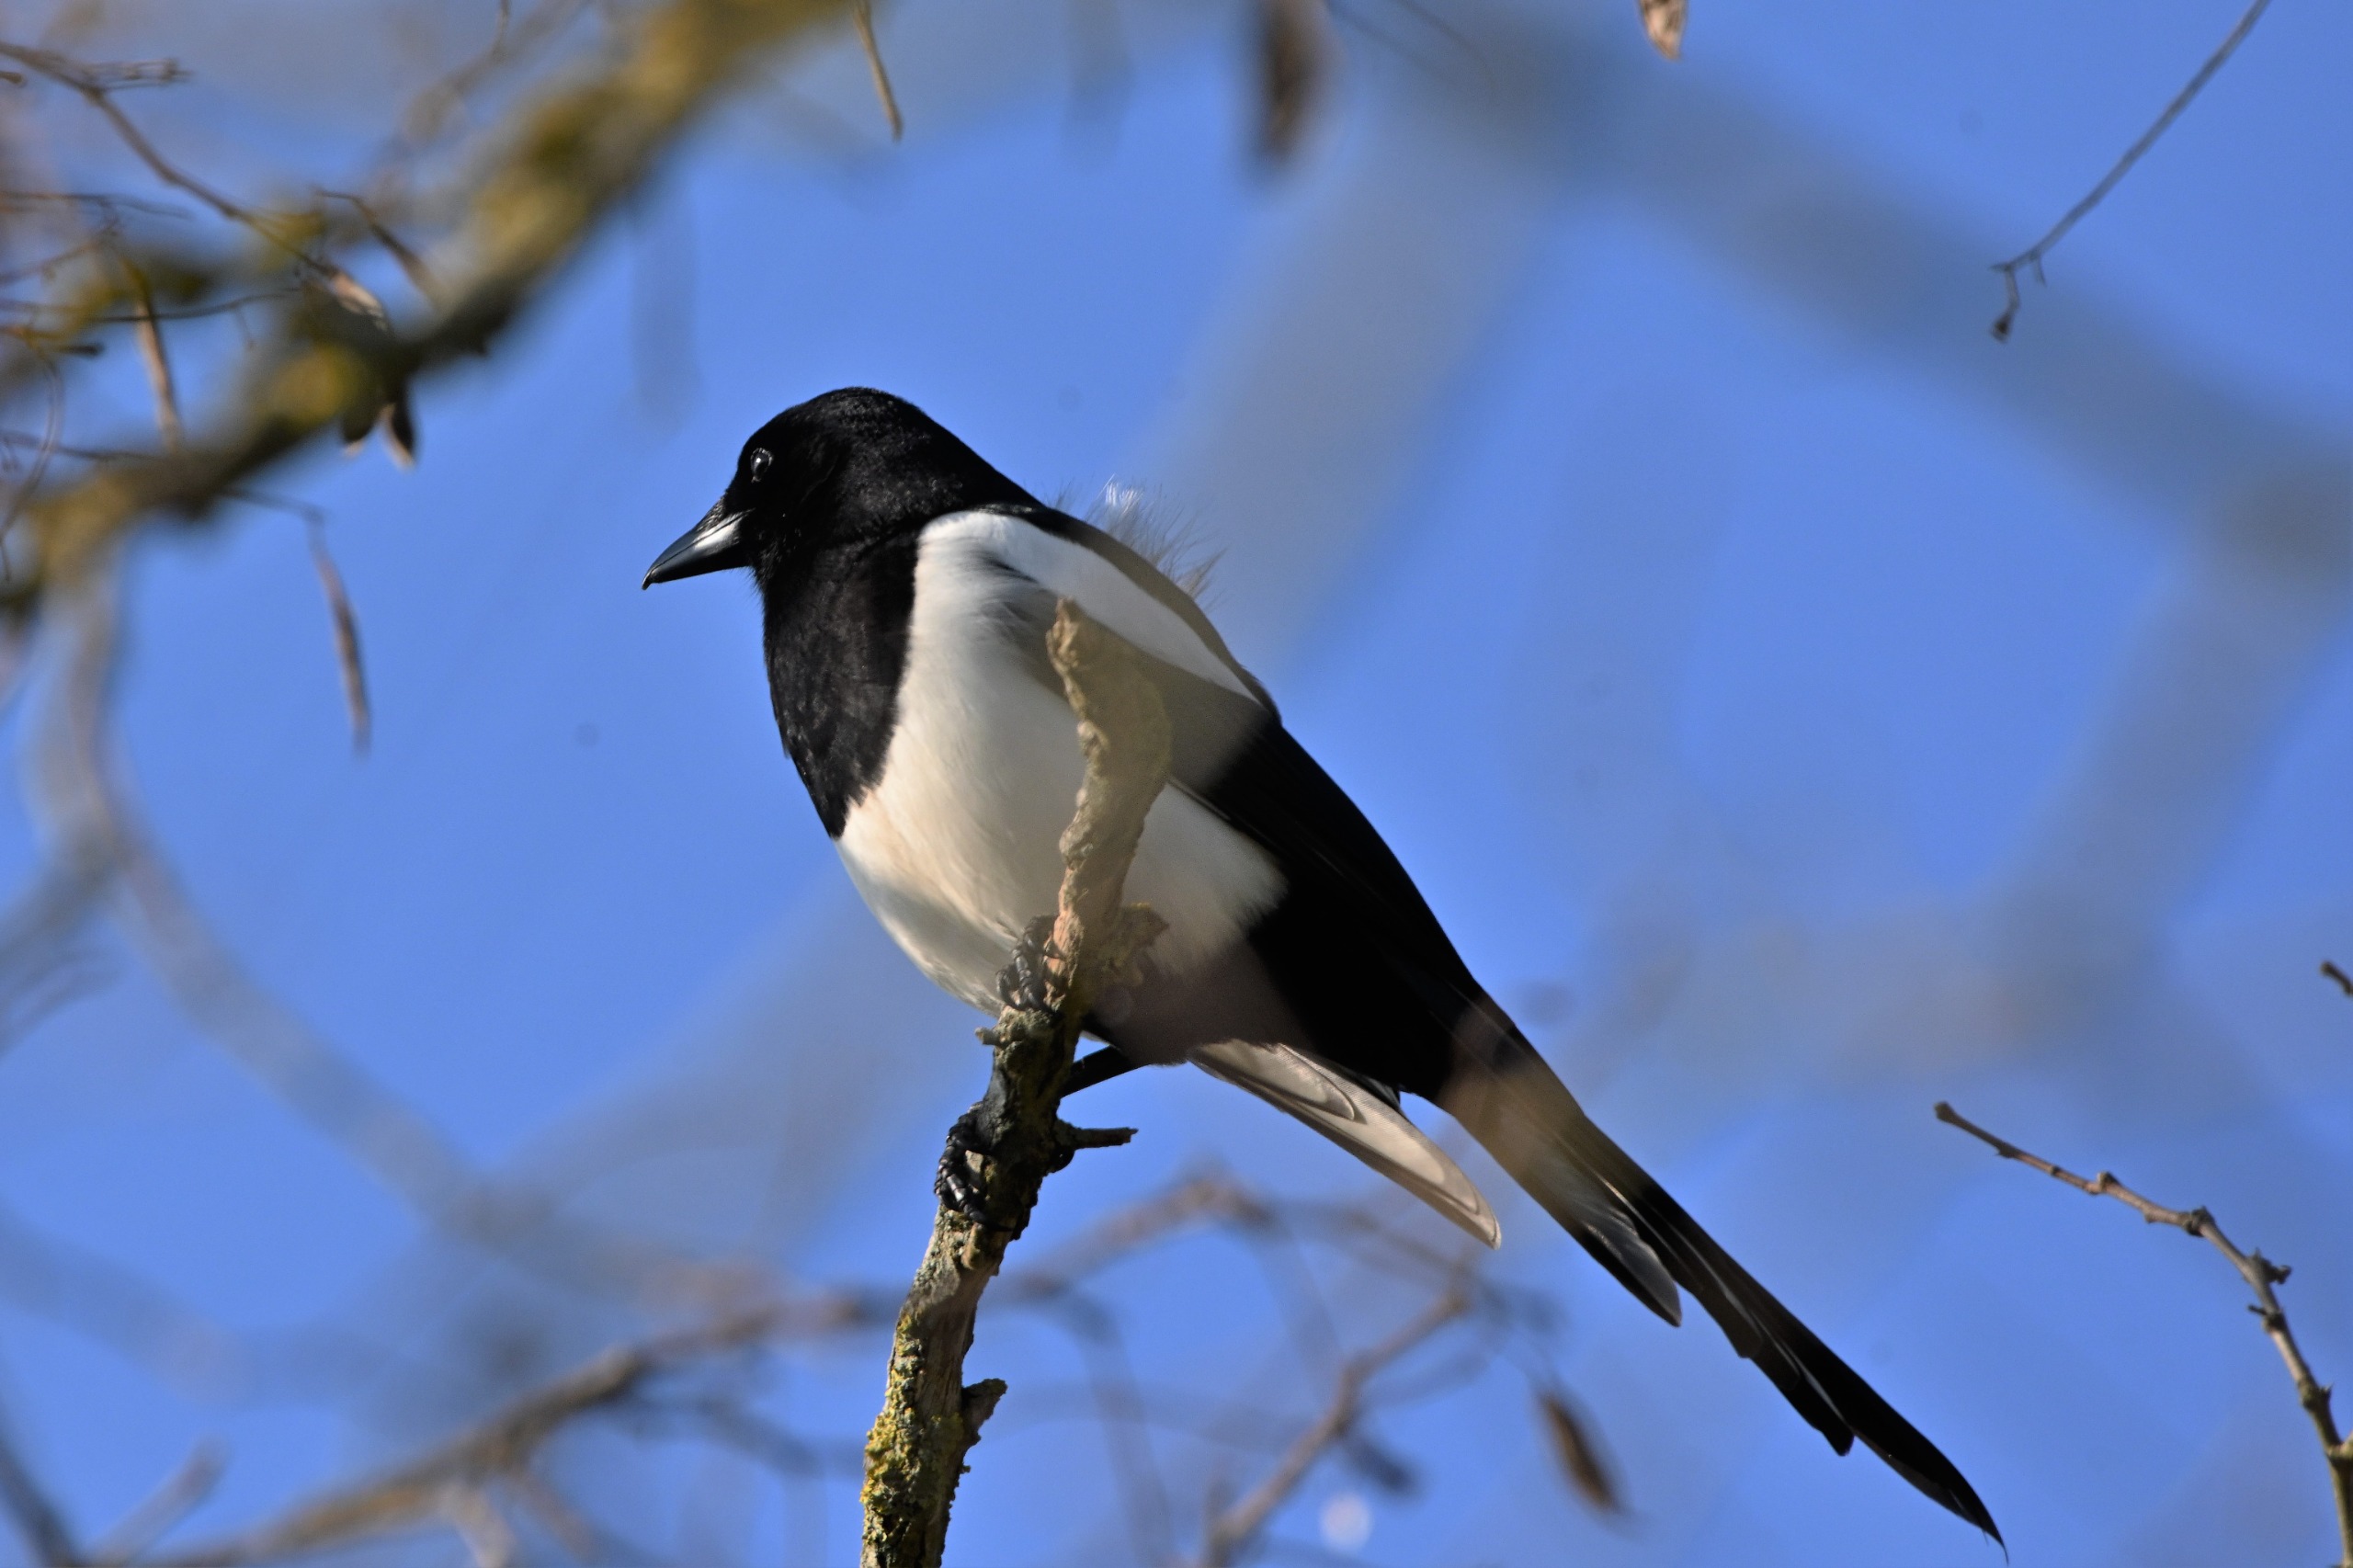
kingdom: Animalia
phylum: Chordata
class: Aves
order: Passeriformes
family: Corvidae
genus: Pica
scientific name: Pica pica
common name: Husskade
